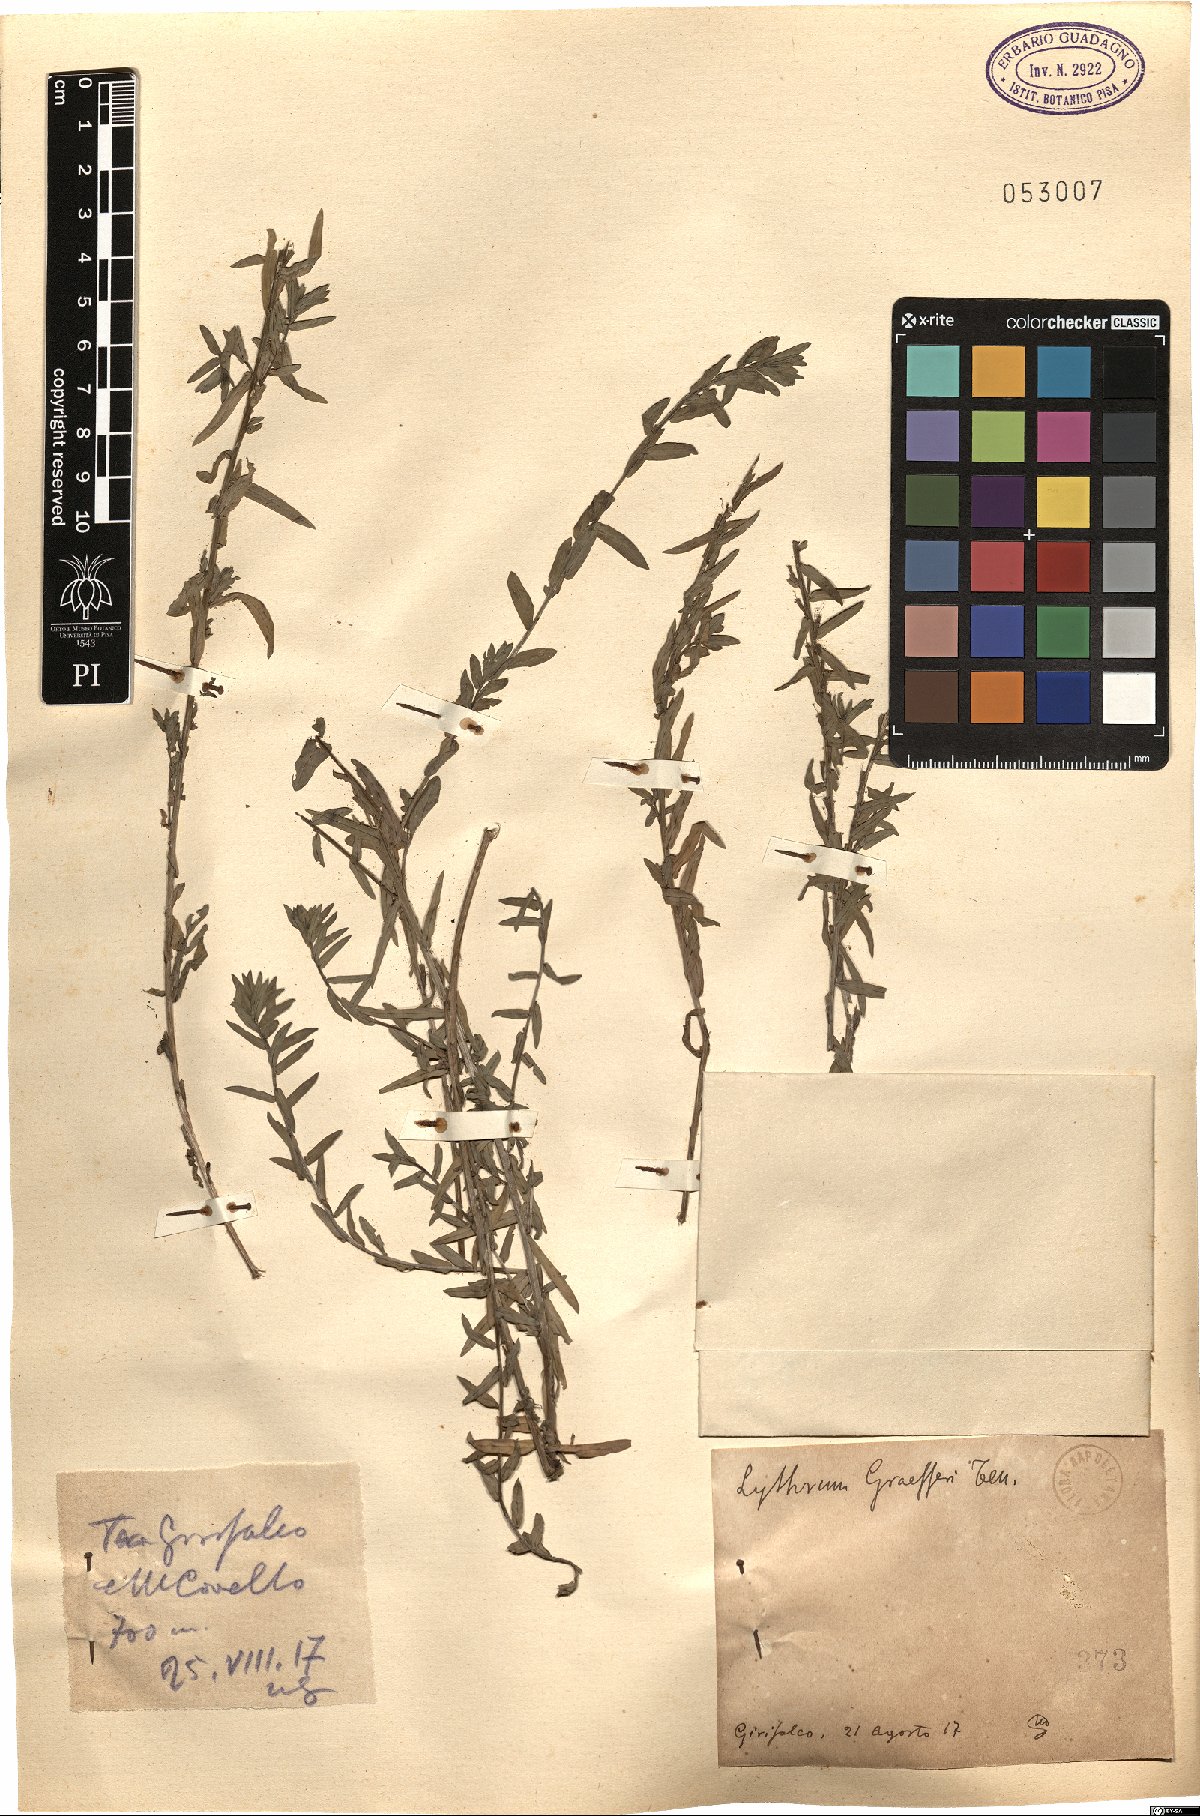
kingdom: Plantae
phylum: Tracheophyta
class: Magnoliopsida
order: Myrtales
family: Lythraceae
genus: Lythrum
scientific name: Lythrum junceum
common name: False grass-poly
